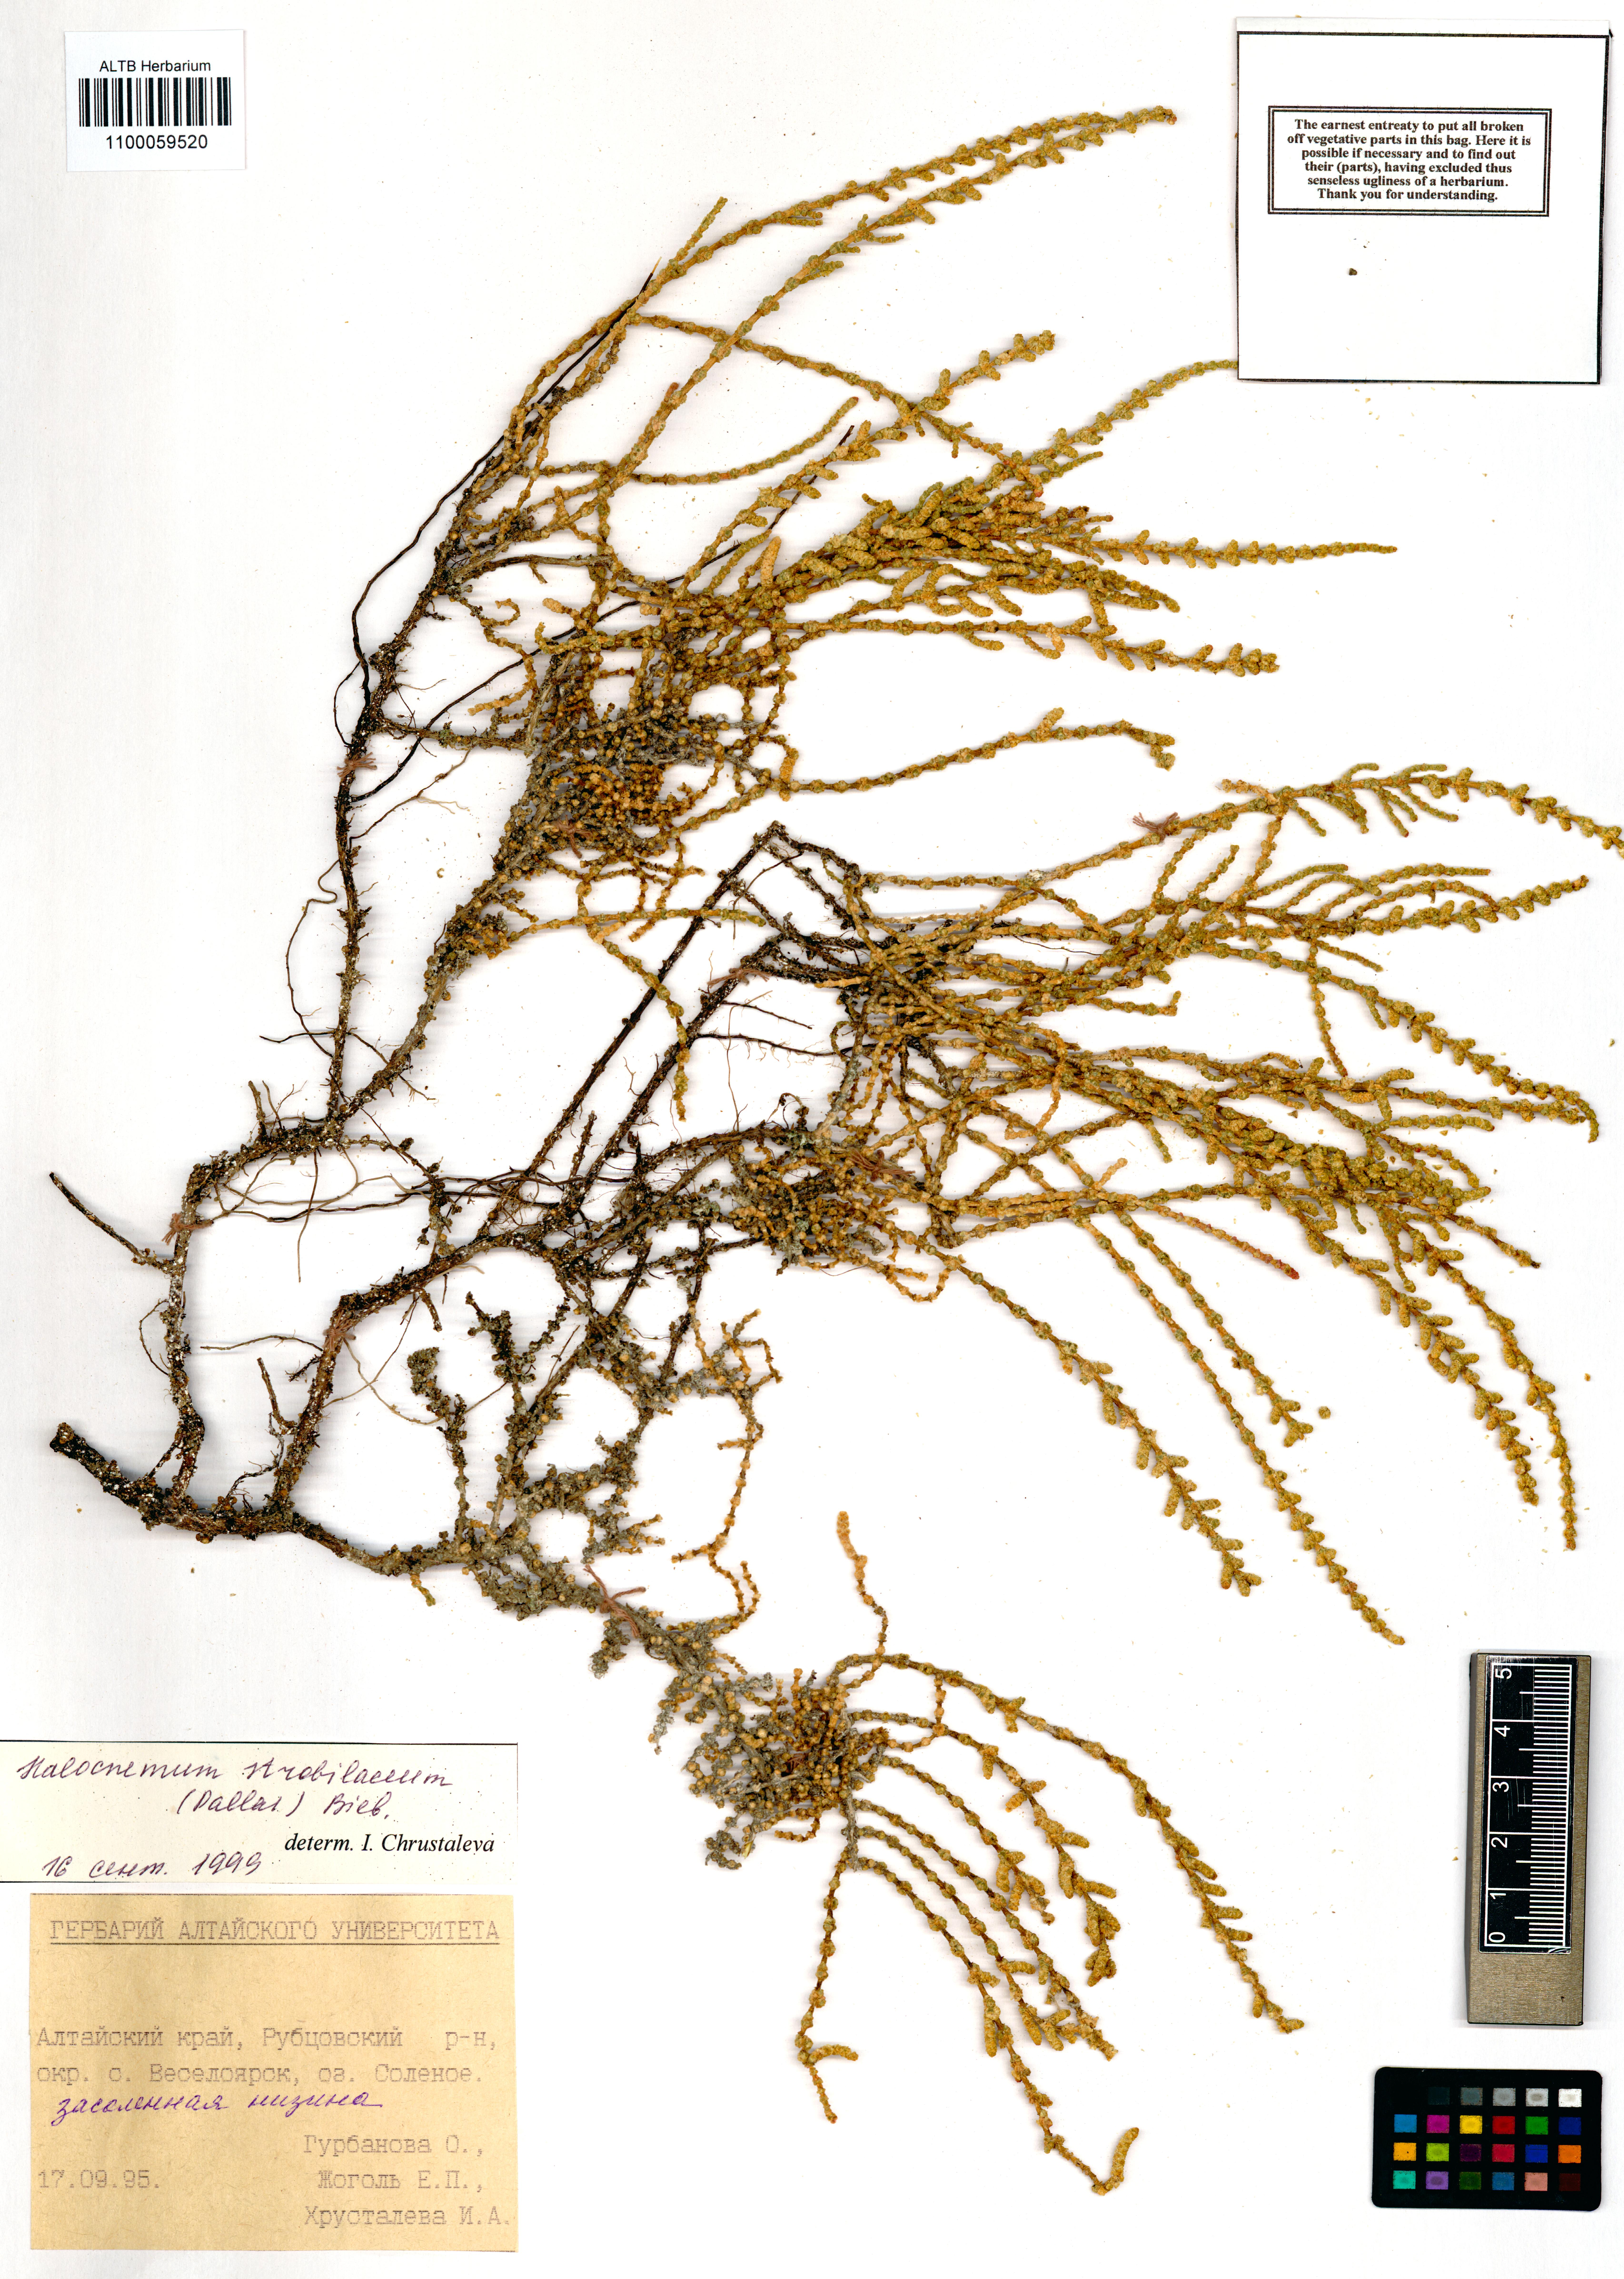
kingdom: Plantae
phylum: Tracheophyta
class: Magnoliopsida
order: Caryophyllales
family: Amaranthaceae
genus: Halocnemum
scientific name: Halocnemum strobilaceum
